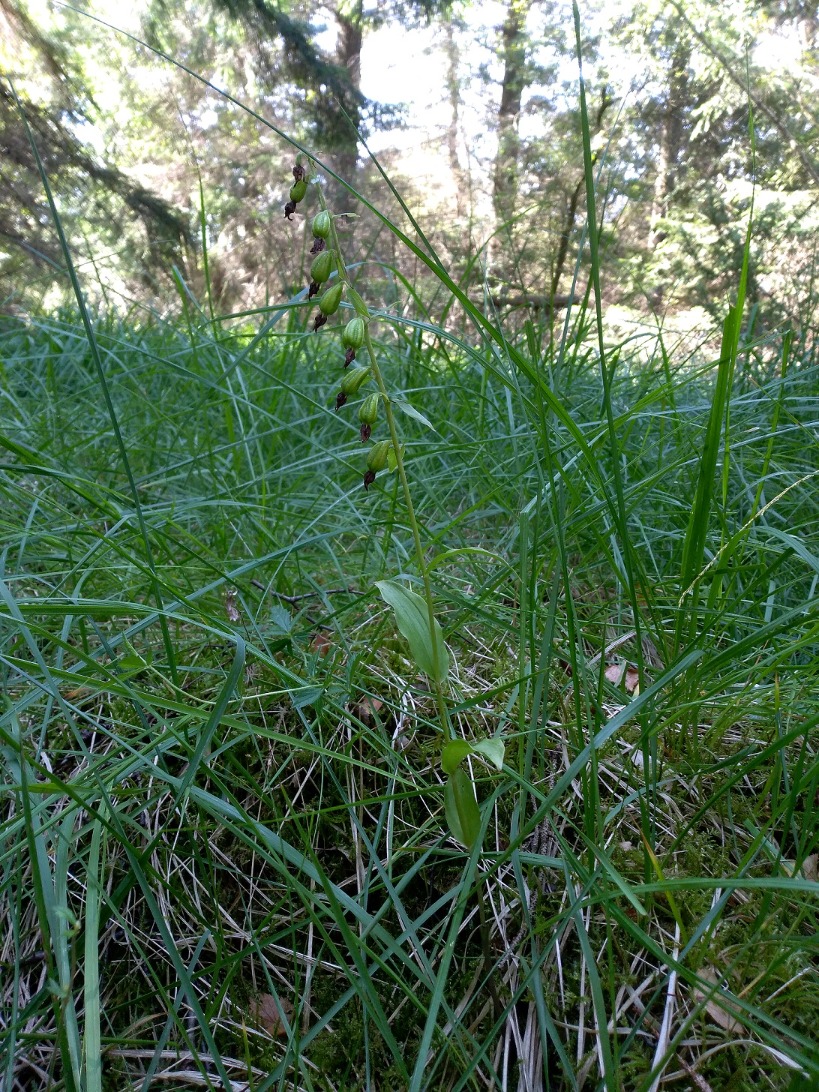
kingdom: Plantae
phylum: Tracheophyta
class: Liliopsida
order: Asparagales
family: Orchidaceae
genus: Epipactis
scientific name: Epipactis phyllanthes
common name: Nikkende hullæbe
